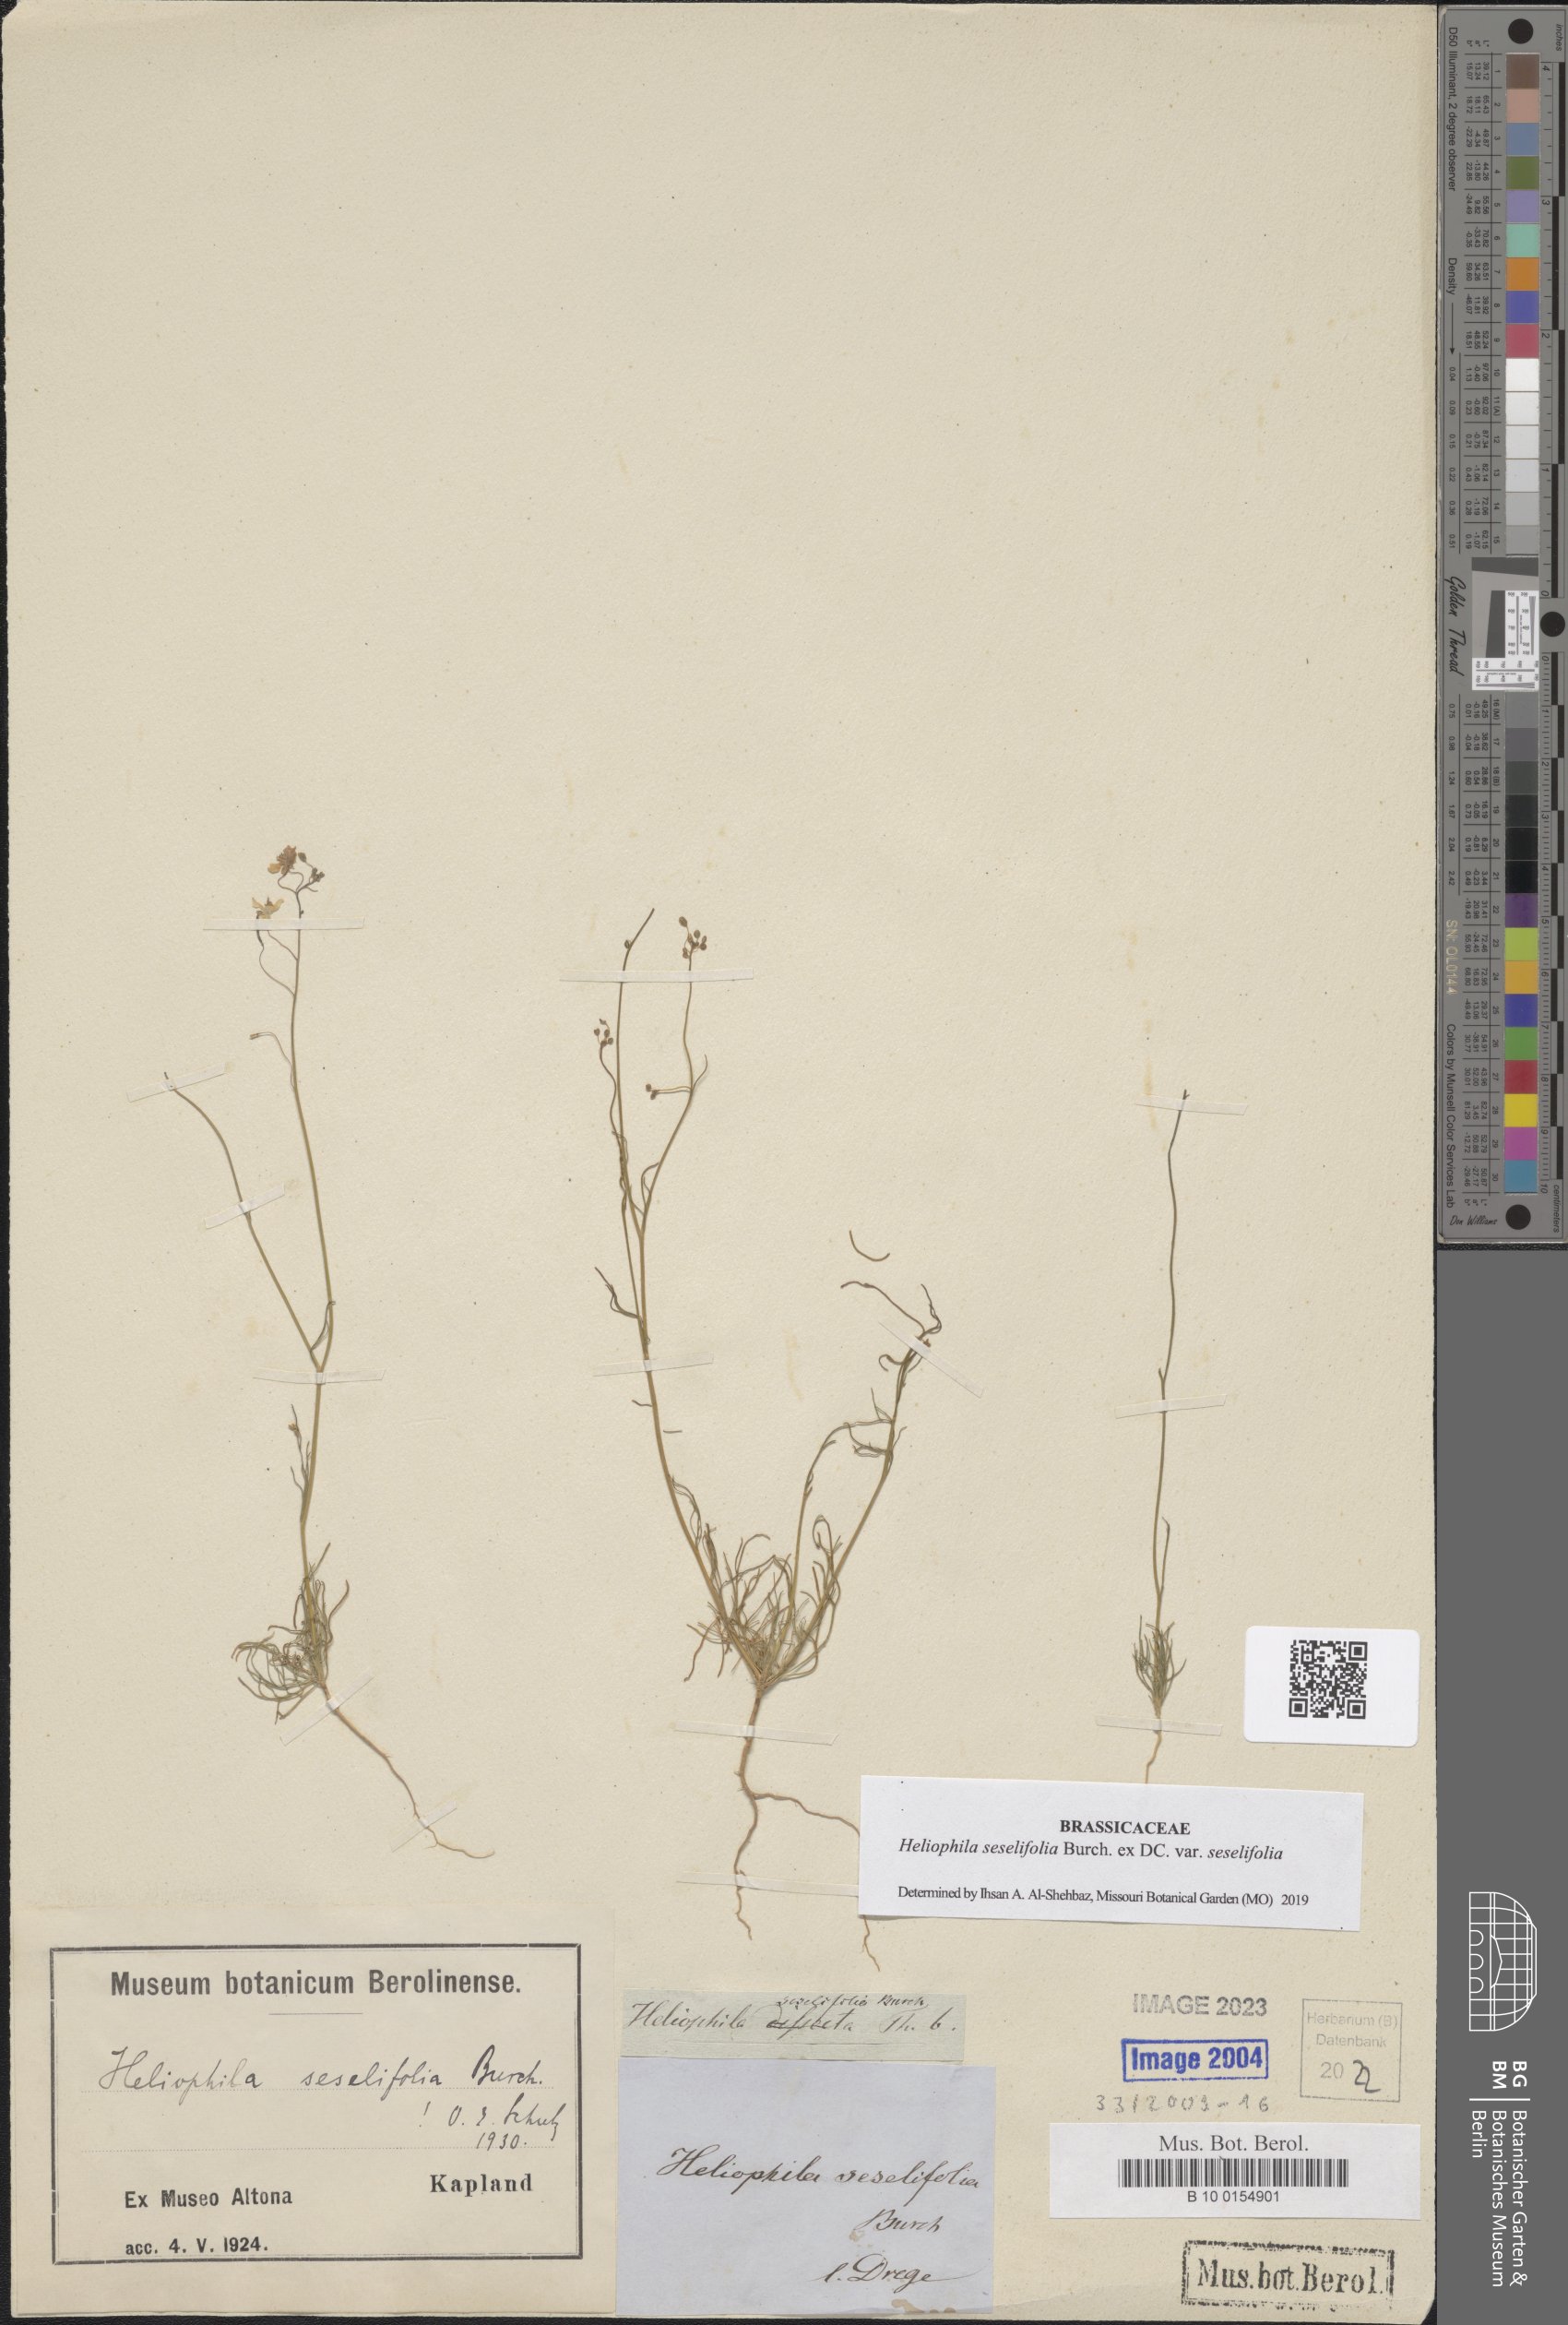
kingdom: Plantae
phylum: Tracheophyta
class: Magnoliopsida
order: Brassicales
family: Brassicaceae
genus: Heliophila
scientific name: Heliophila seselifolia
